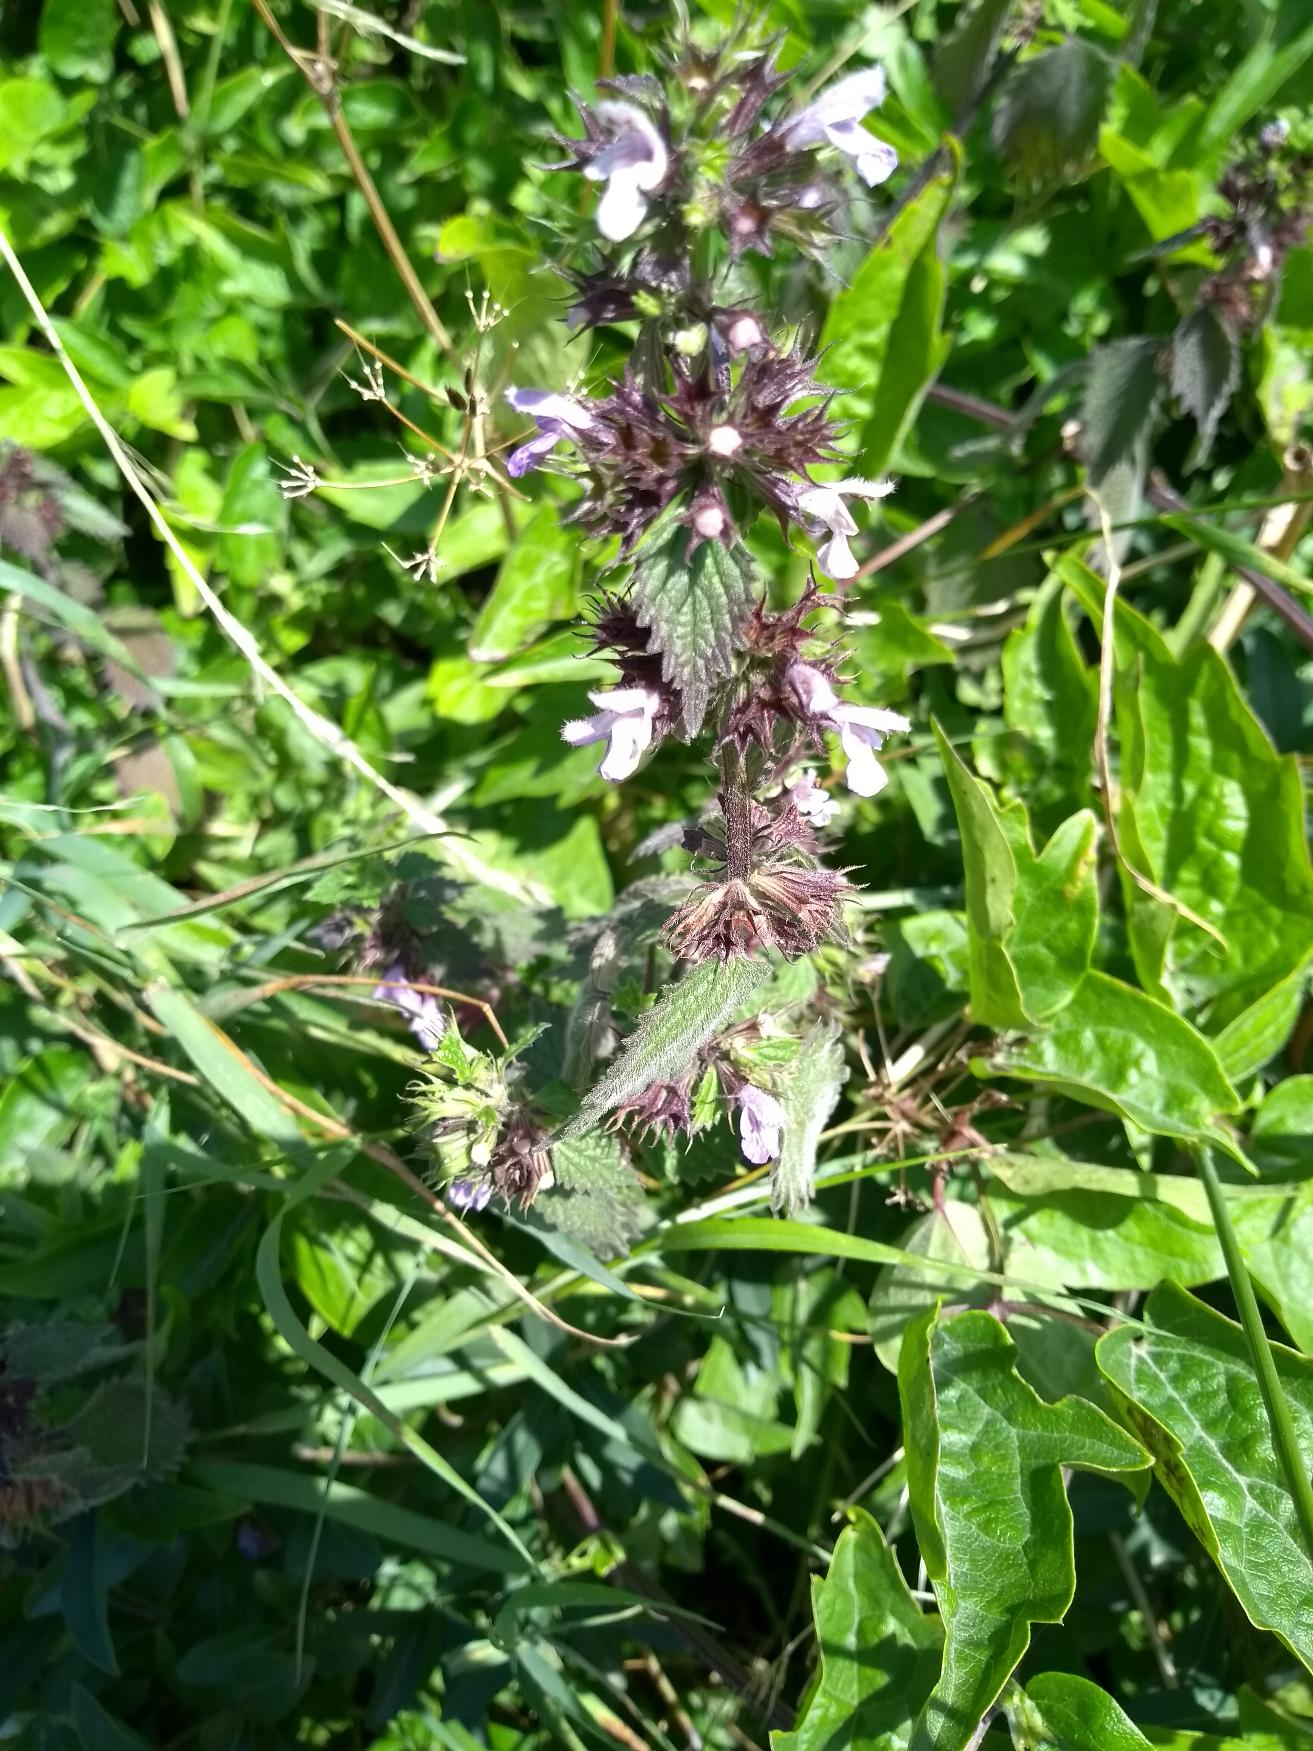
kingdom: Plantae
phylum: Tracheophyta
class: Magnoliopsida
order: Lamiales
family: Lamiaceae
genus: Ballota
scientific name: Ballota nigra
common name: Tandbæger
